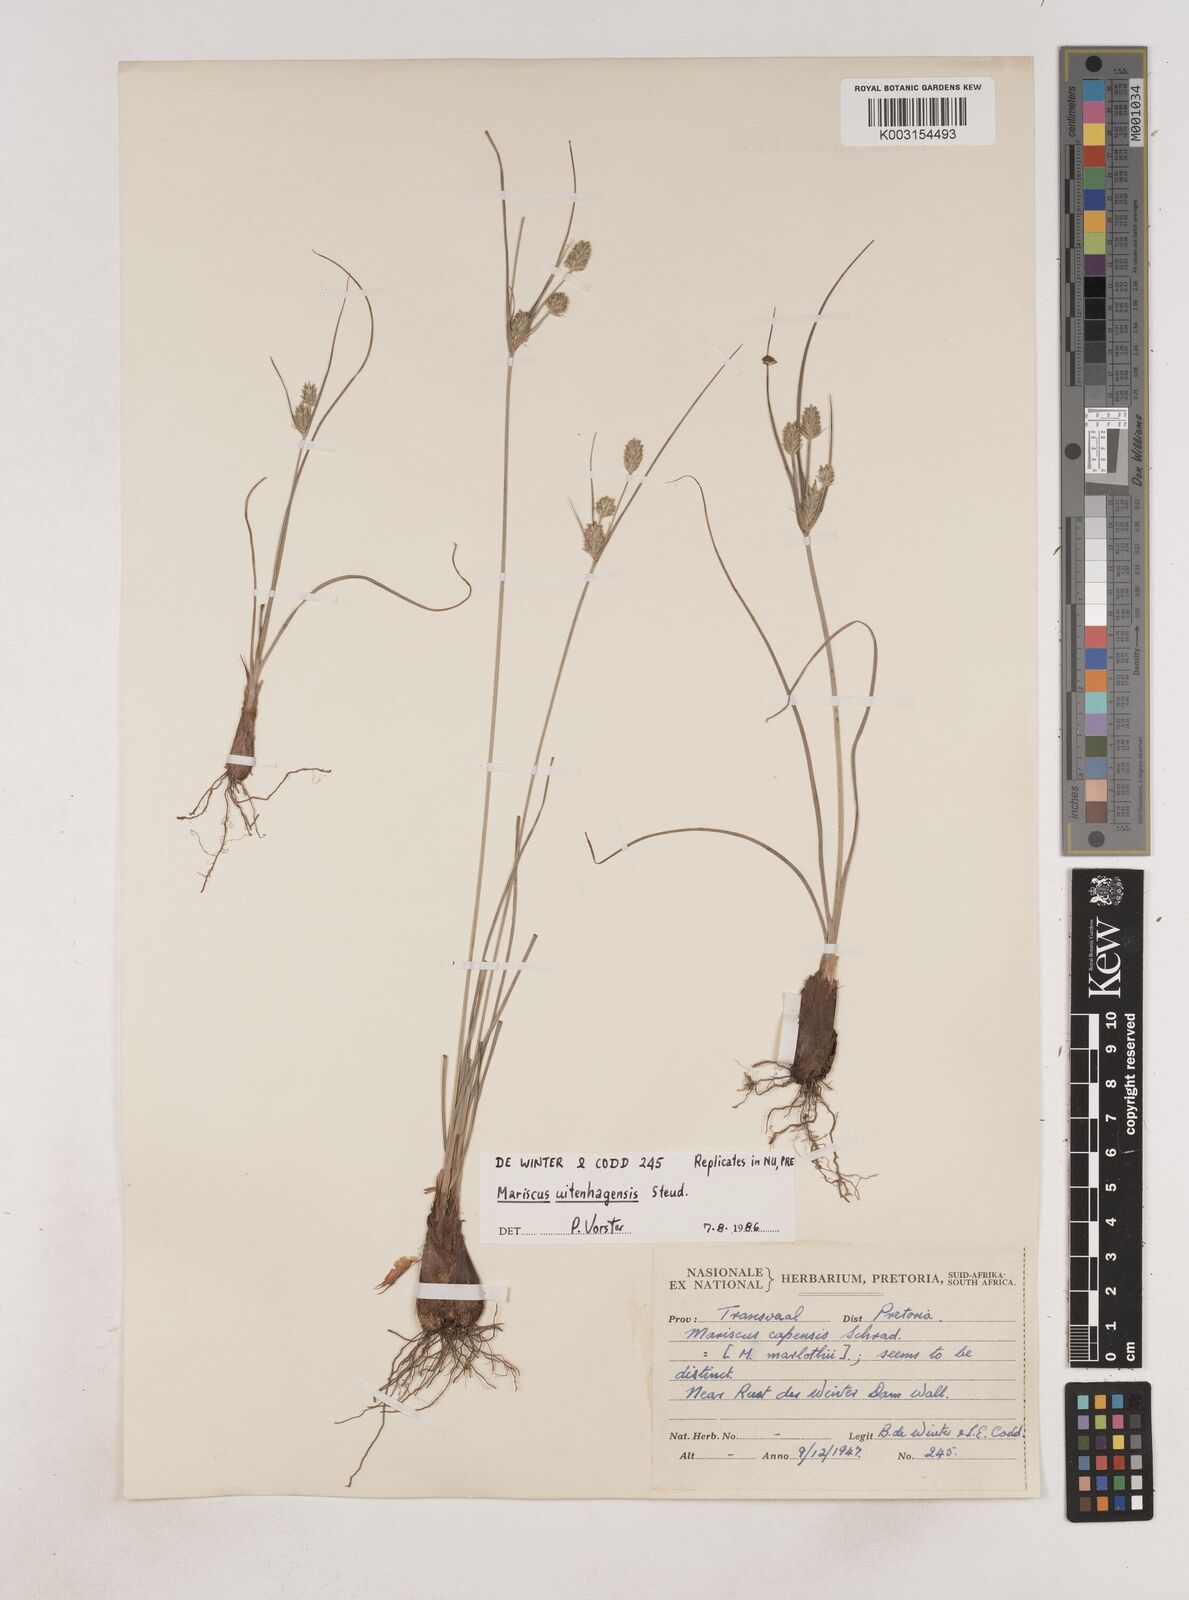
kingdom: Plantae
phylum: Tracheophyta
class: Liliopsida
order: Poales
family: Cyperaceae
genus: Cyperus
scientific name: Cyperus capensis
